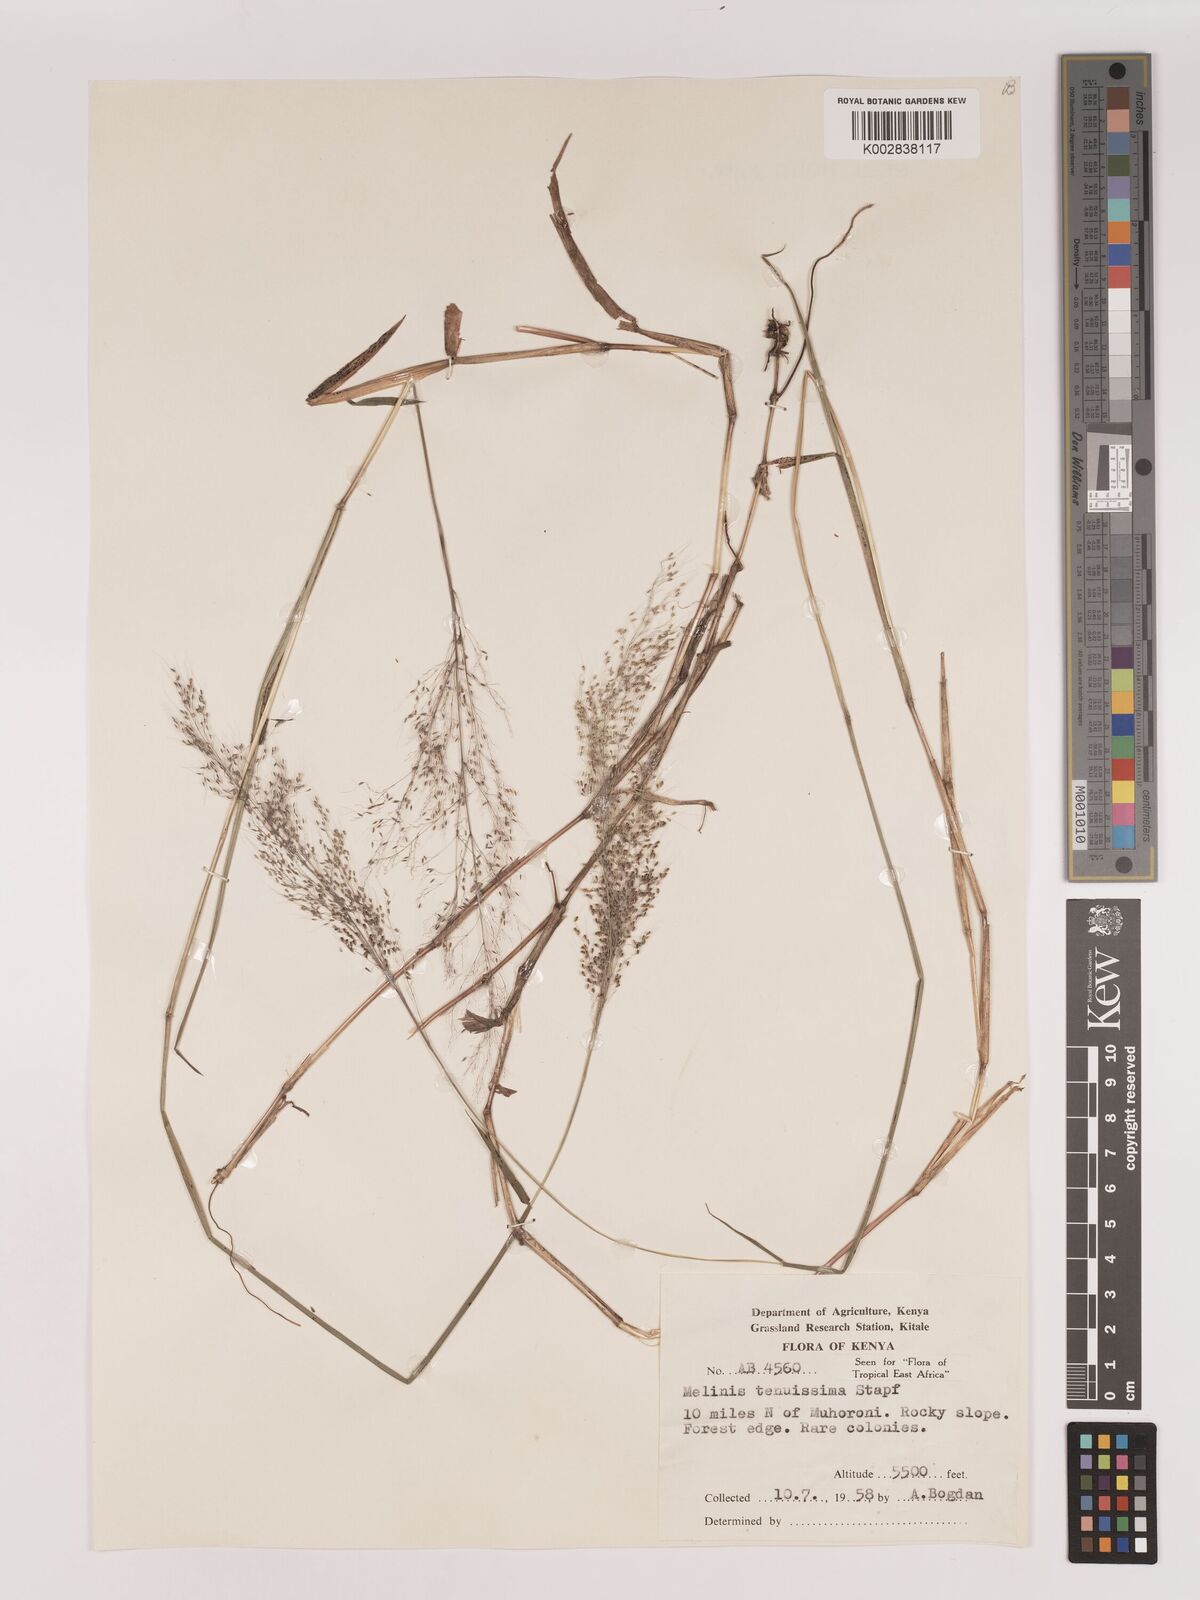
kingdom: Plantae
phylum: Tracheophyta
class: Liliopsida
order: Poales
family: Poaceae
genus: Melinis
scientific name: Melinis tenuissima
